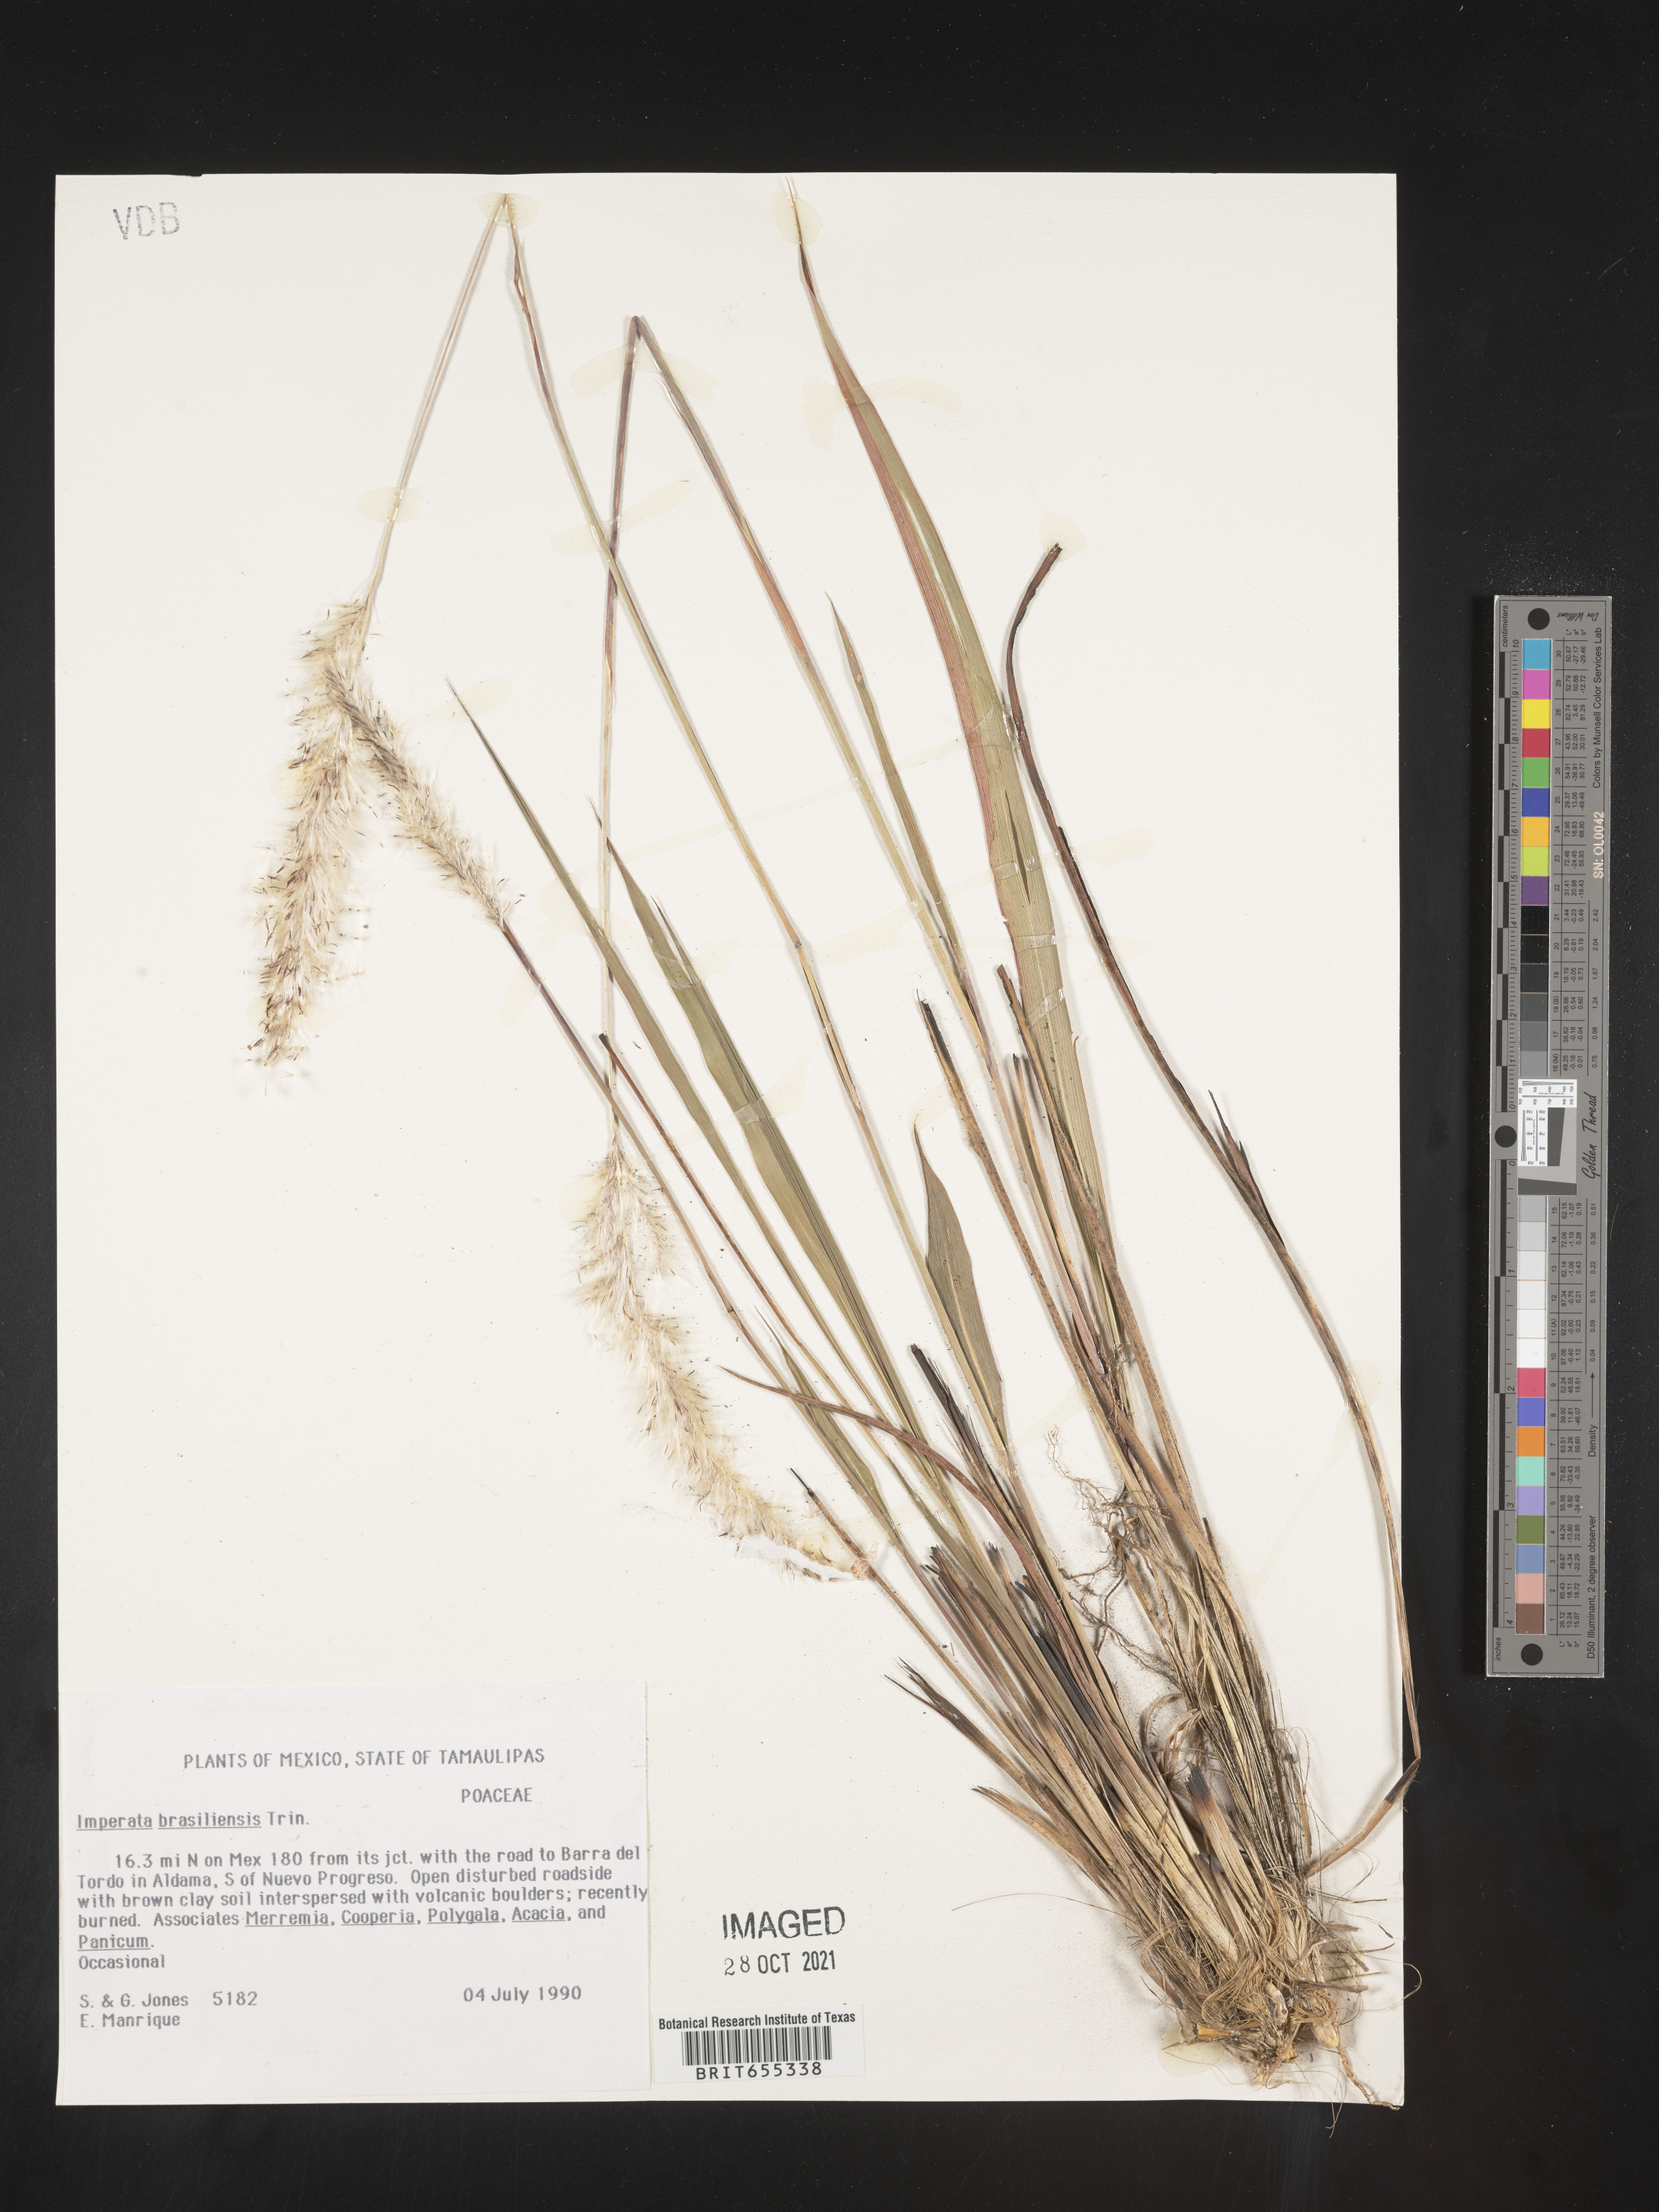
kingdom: Plantae
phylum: Tracheophyta
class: Liliopsida
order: Poales
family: Poaceae
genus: Imperata
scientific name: Imperata
